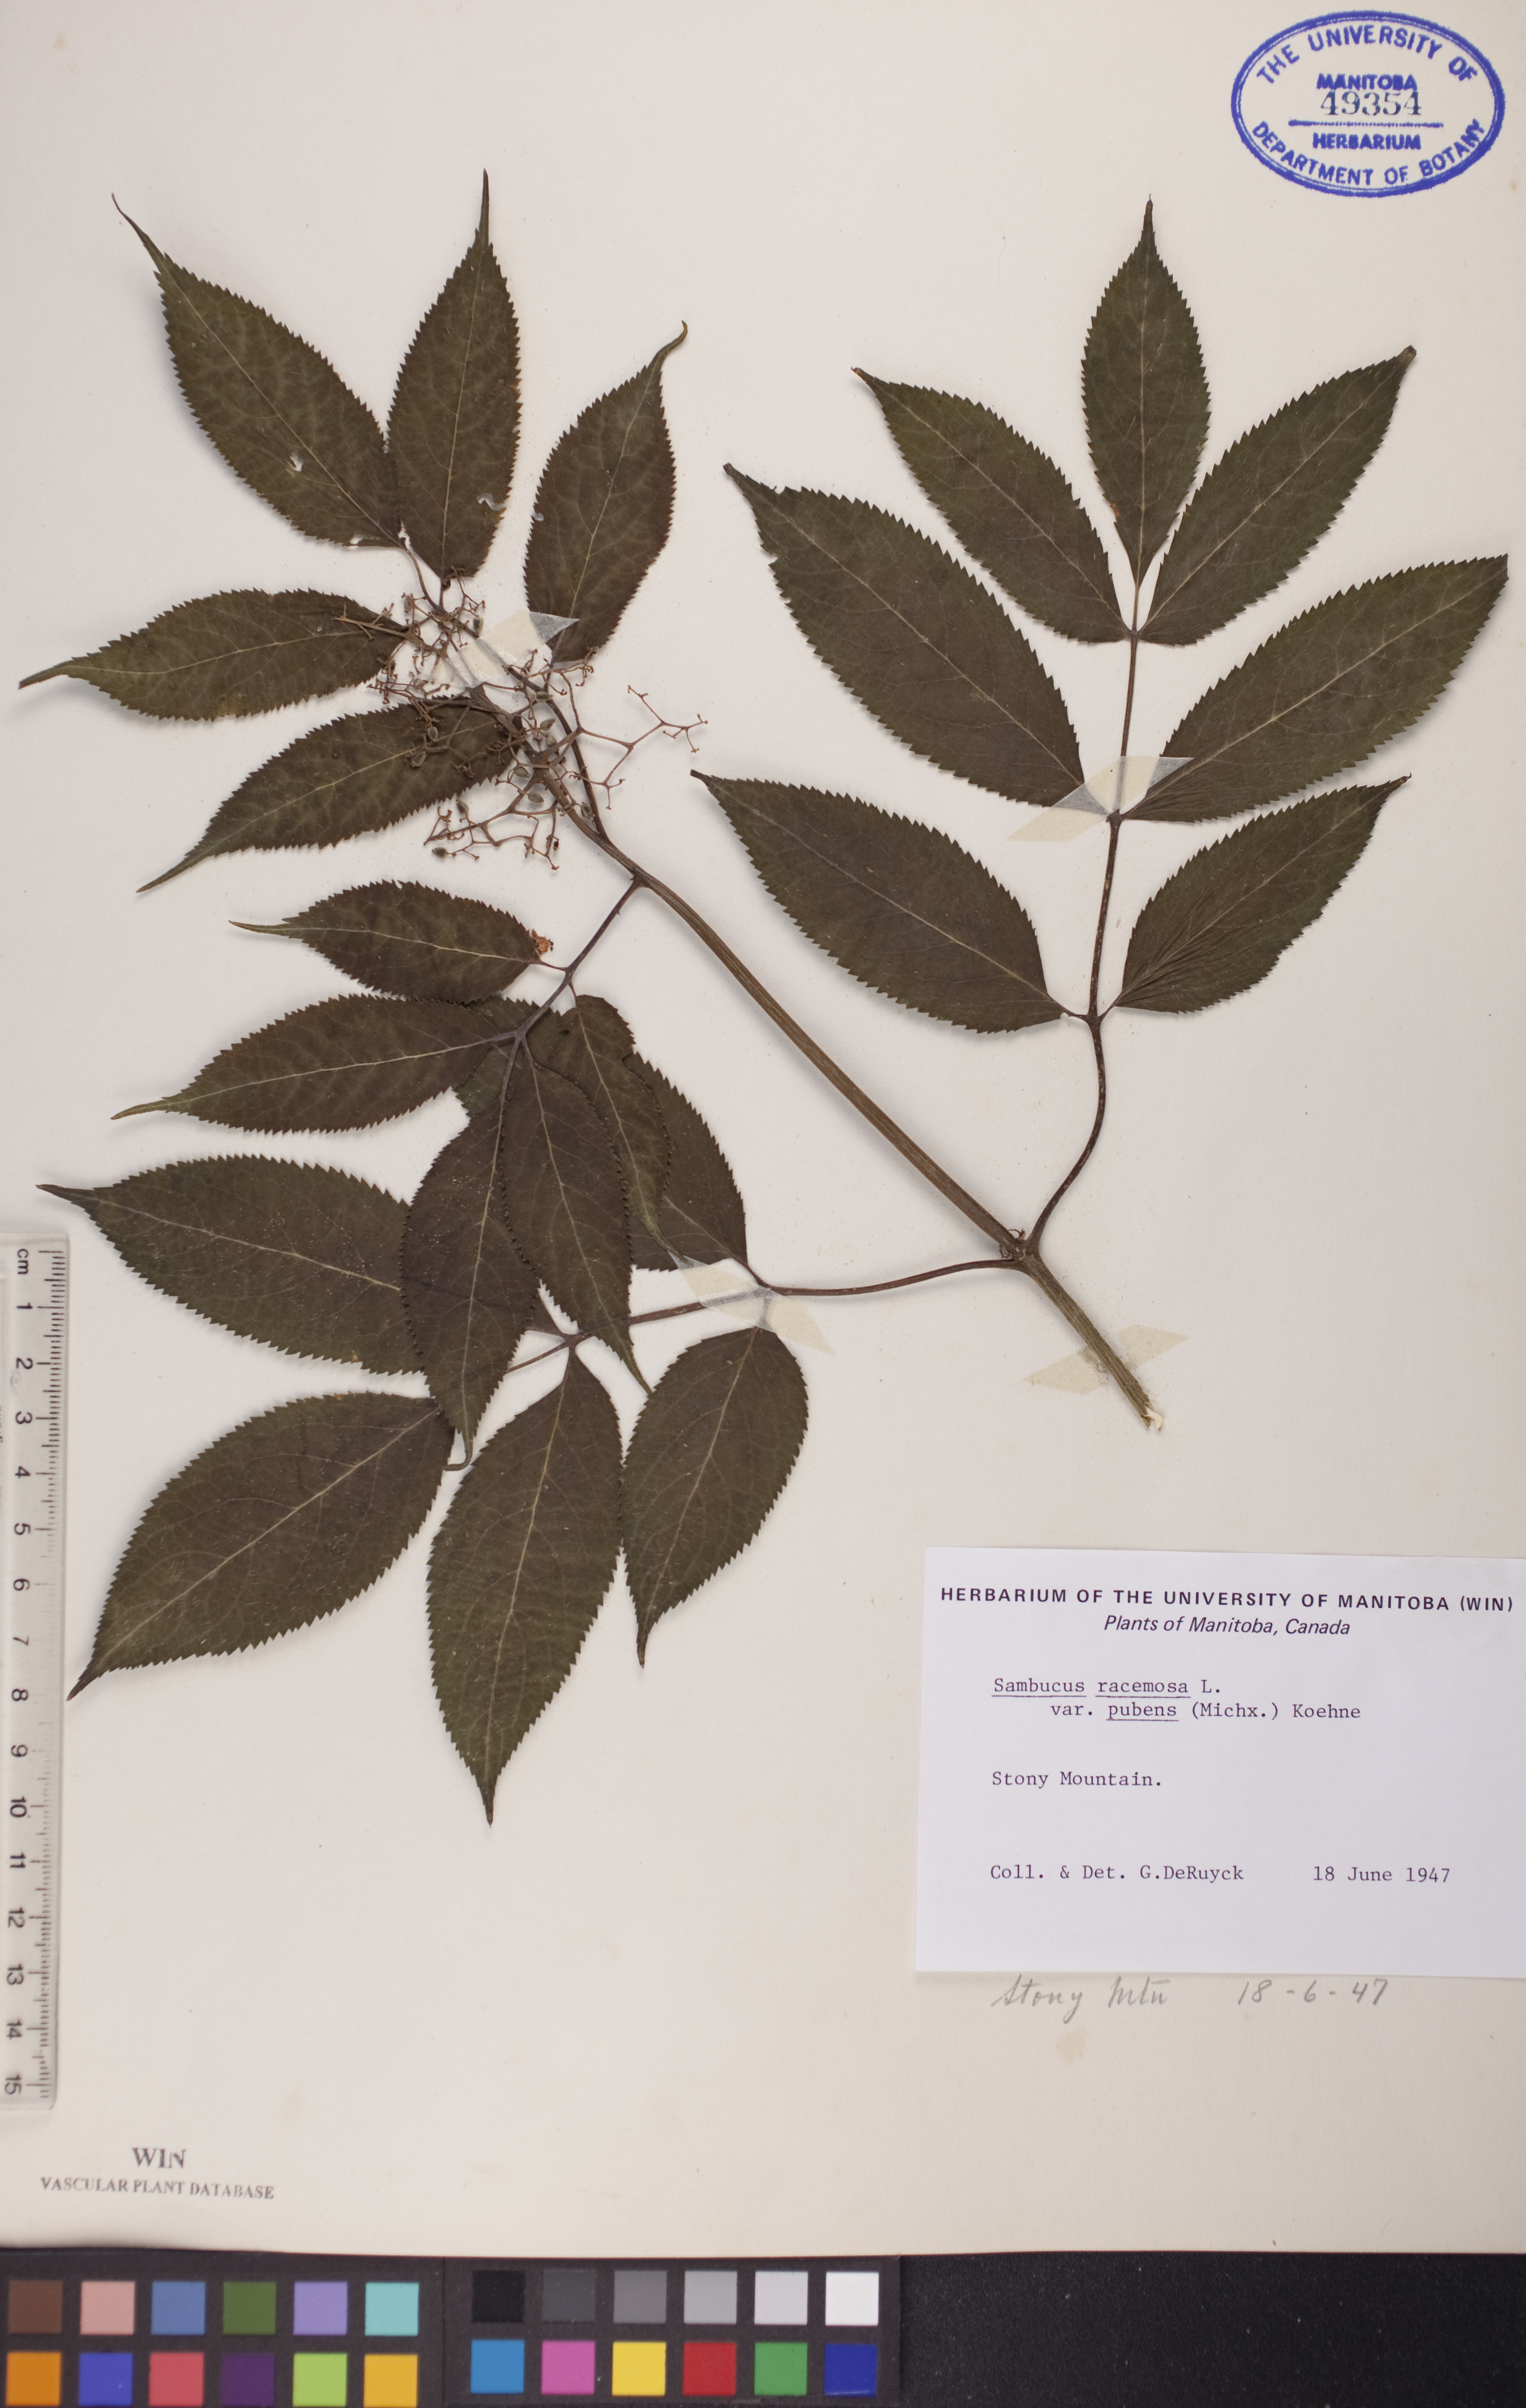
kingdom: Plantae
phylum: Tracheophyta
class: Magnoliopsida
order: Dipsacales
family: Viburnaceae
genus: Sambucus
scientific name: Sambucus racemosa
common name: Red-berried elder
